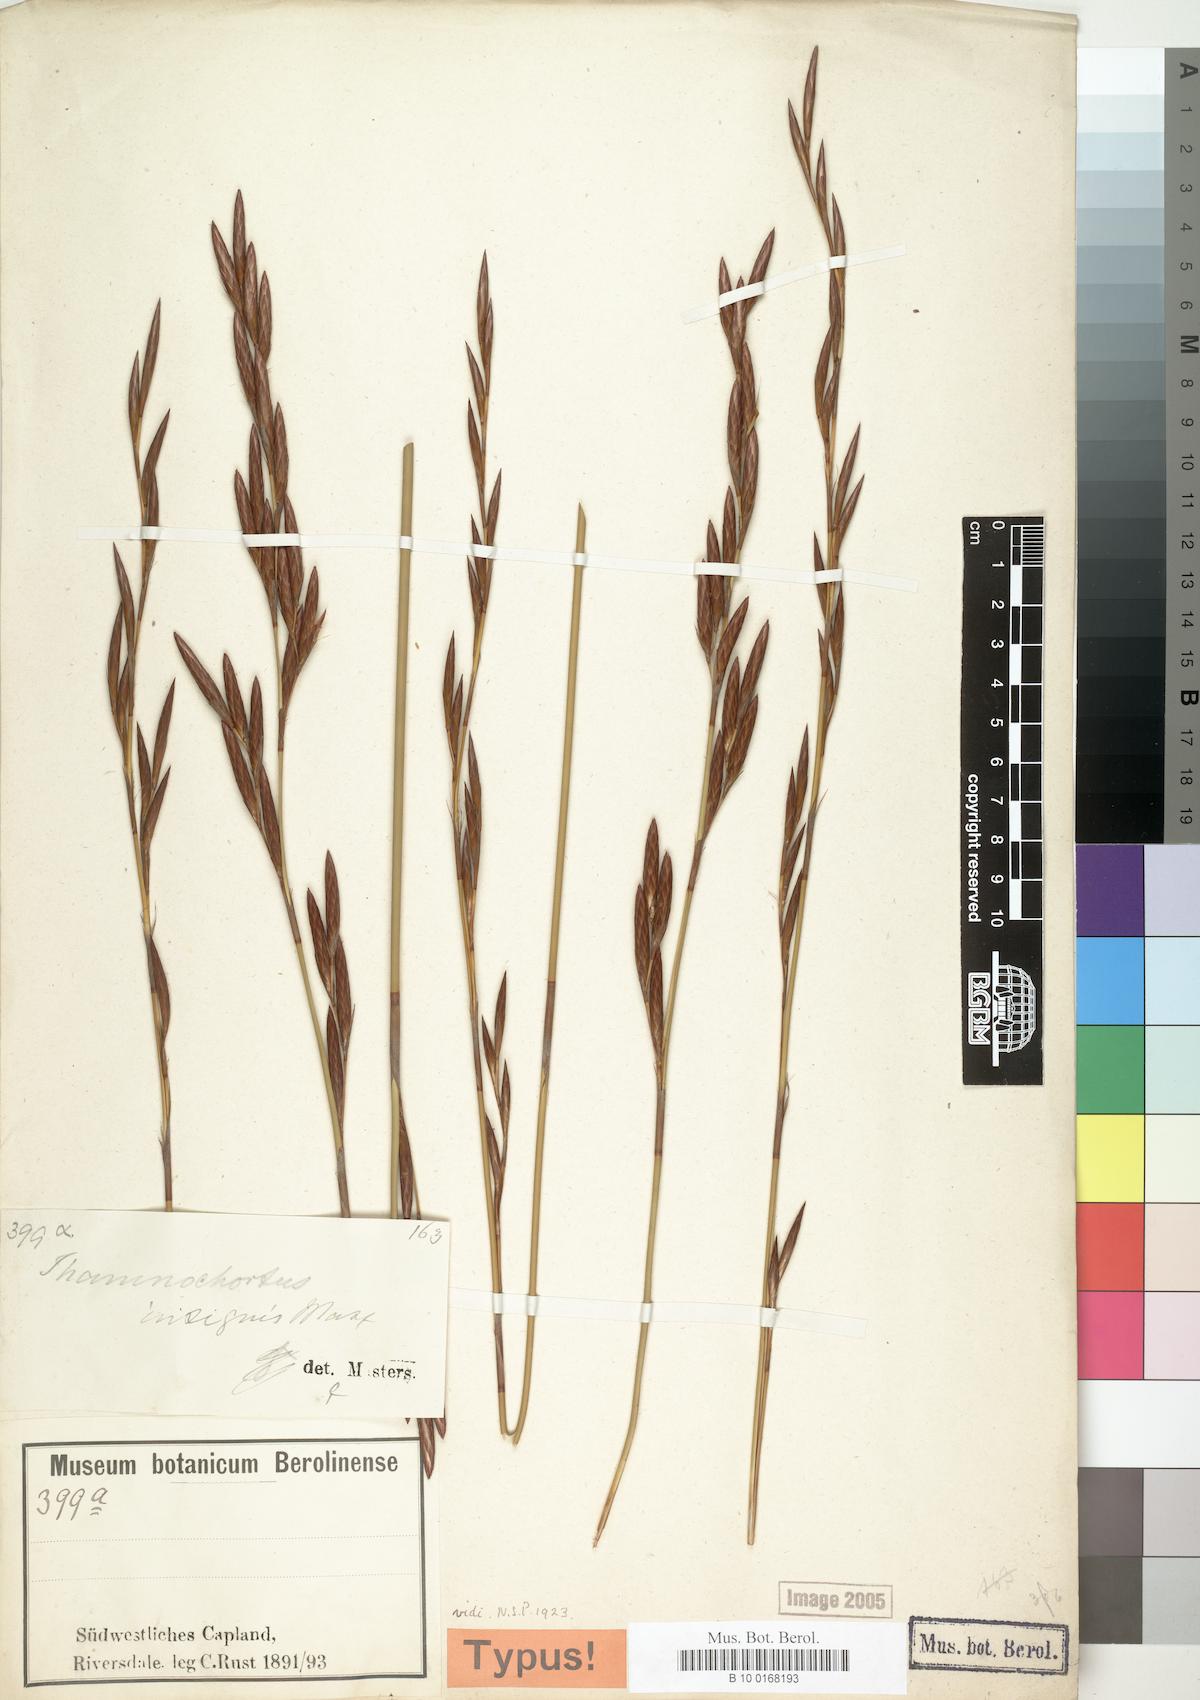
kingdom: Plantae
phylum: Tracheophyta
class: Liliopsida
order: Poales
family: Restionaceae
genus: Thamnochortus
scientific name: Thamnochortus insignis
